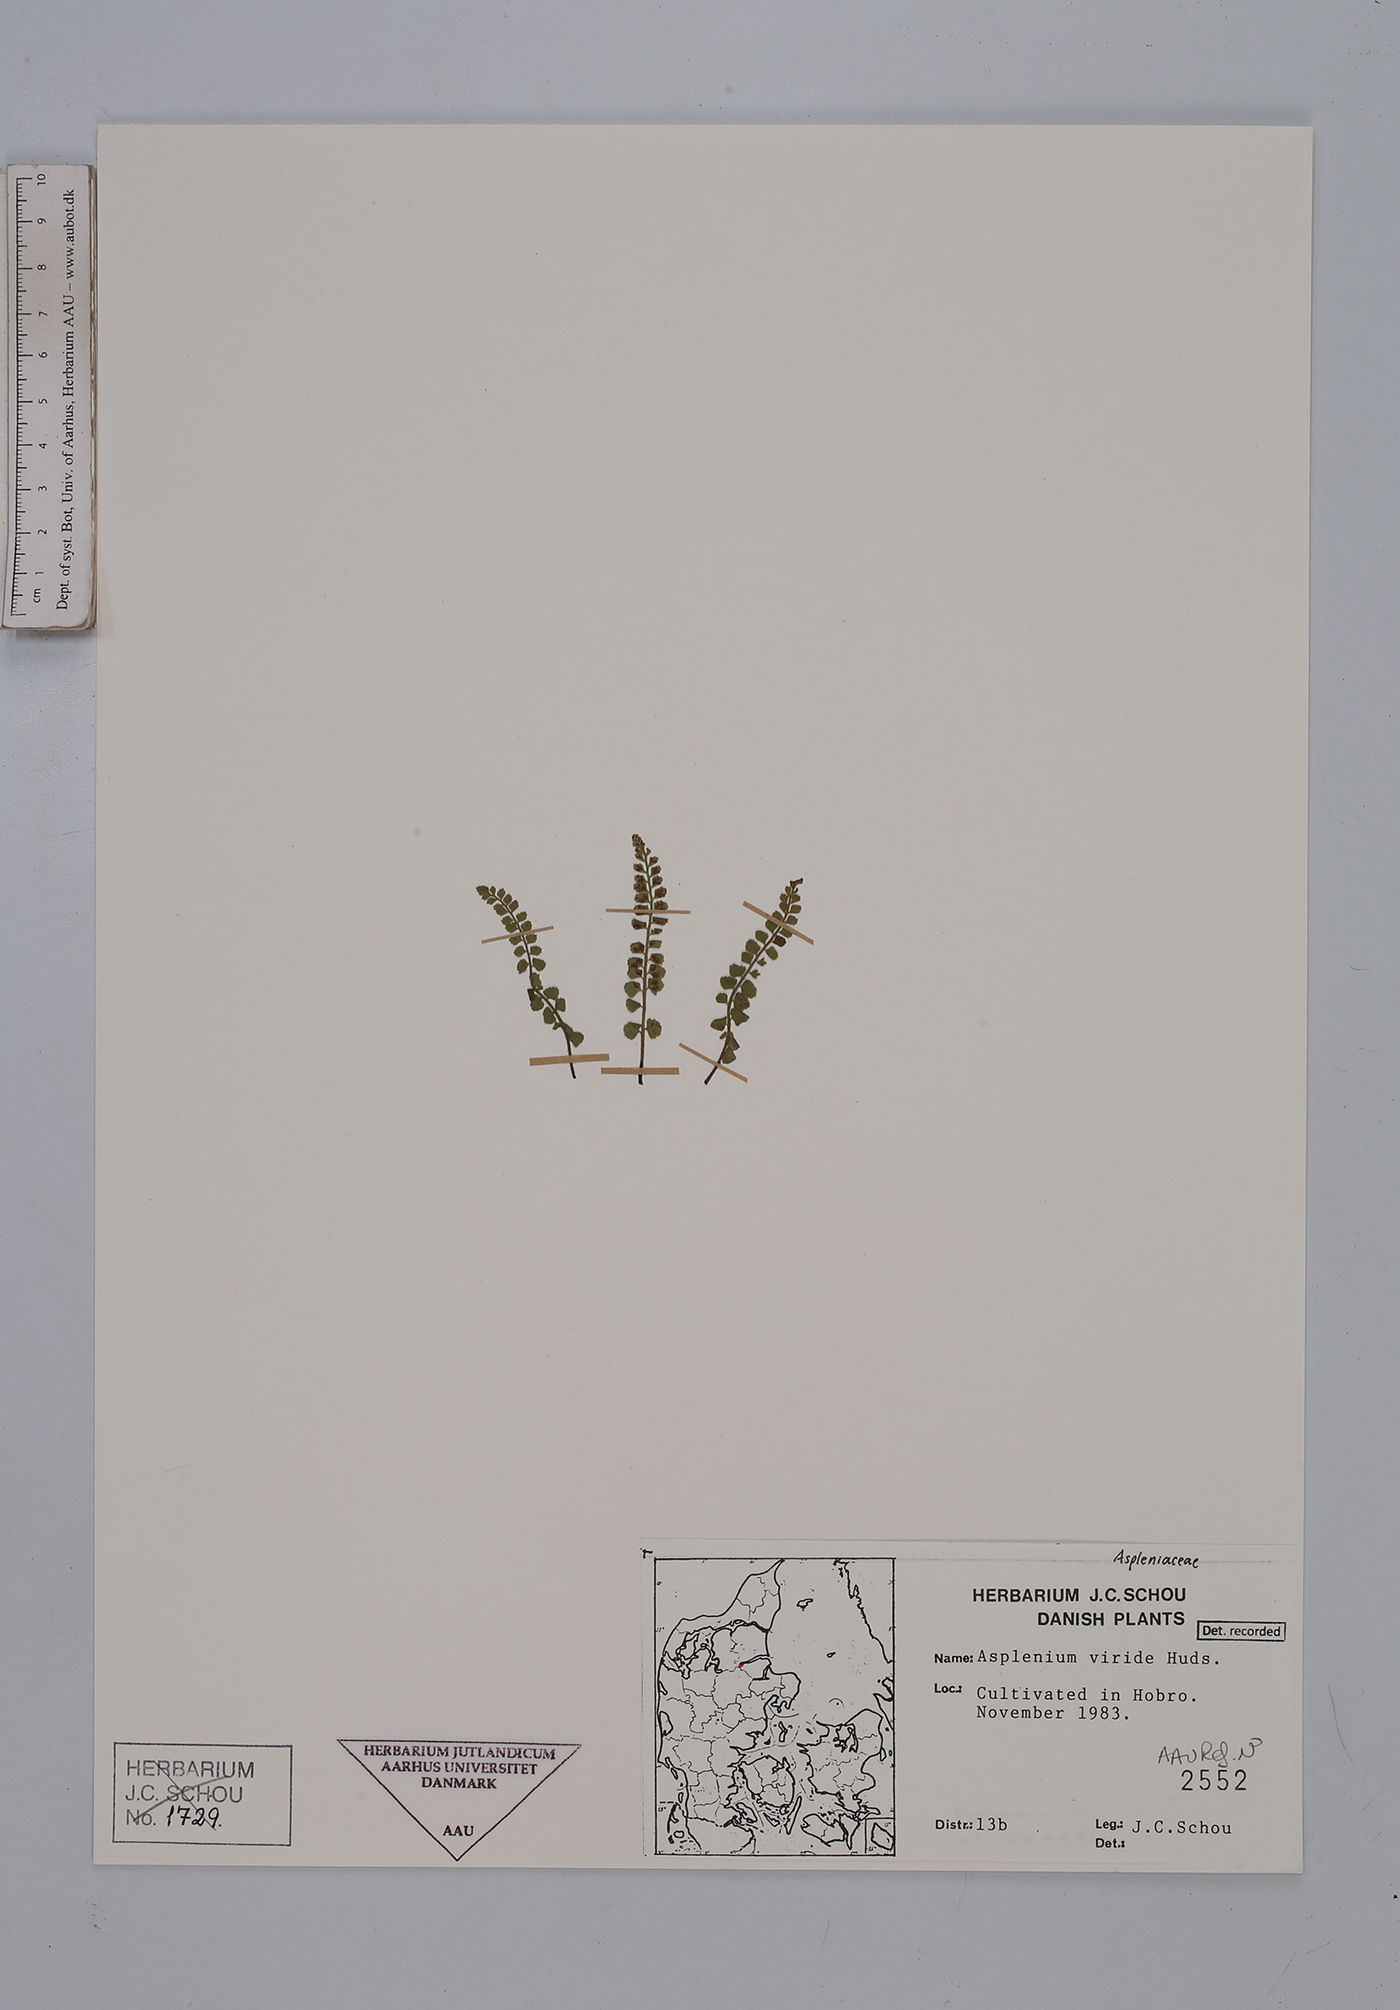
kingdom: Plantae
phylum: Tracheophyta
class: Polypodiopsida
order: Polypodiales
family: Aspleniaceae
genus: Asplenium
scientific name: Asplenium viride
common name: Green spleenwort
